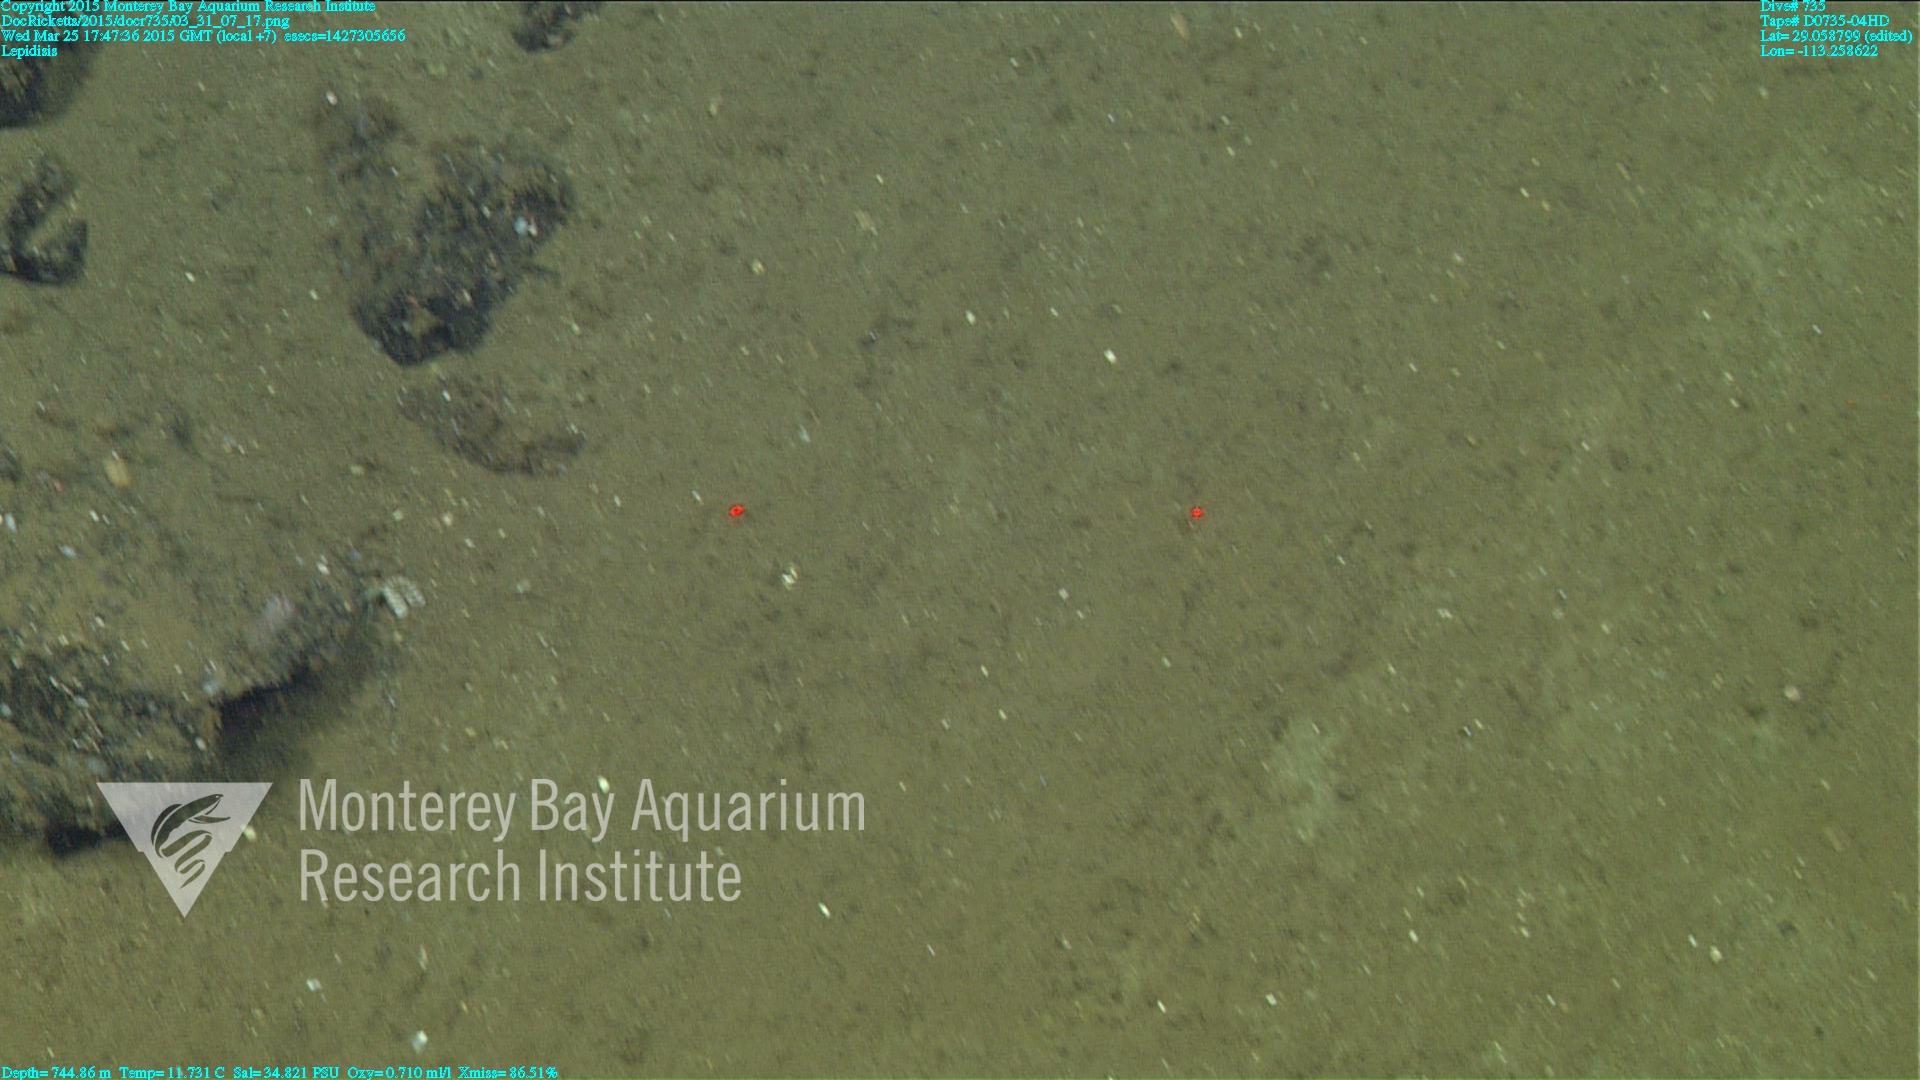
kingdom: Animalia
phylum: Cnidaria
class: Anthozoa
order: Scleralcyonacea
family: Keratoisididae
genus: Lepidisis
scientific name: Lepidisis
